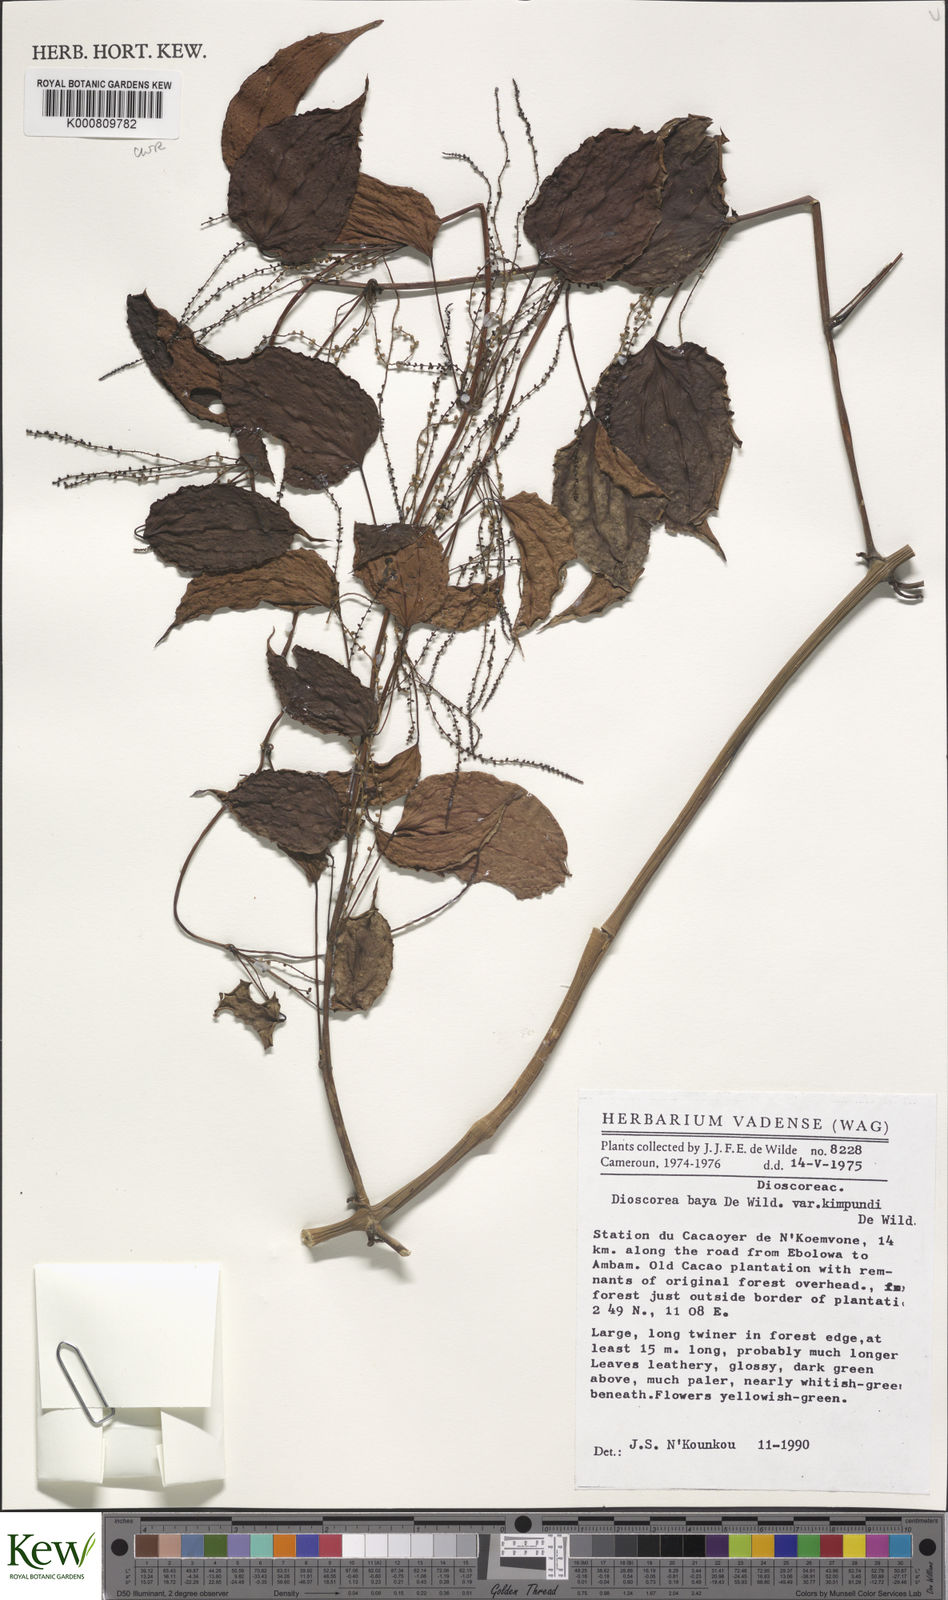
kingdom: Plantae
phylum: Tracheophyta
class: Liliopsida
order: Dioscoreales
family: Dioscoreaceae
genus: Dioscorea
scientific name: Dioscorea baya
